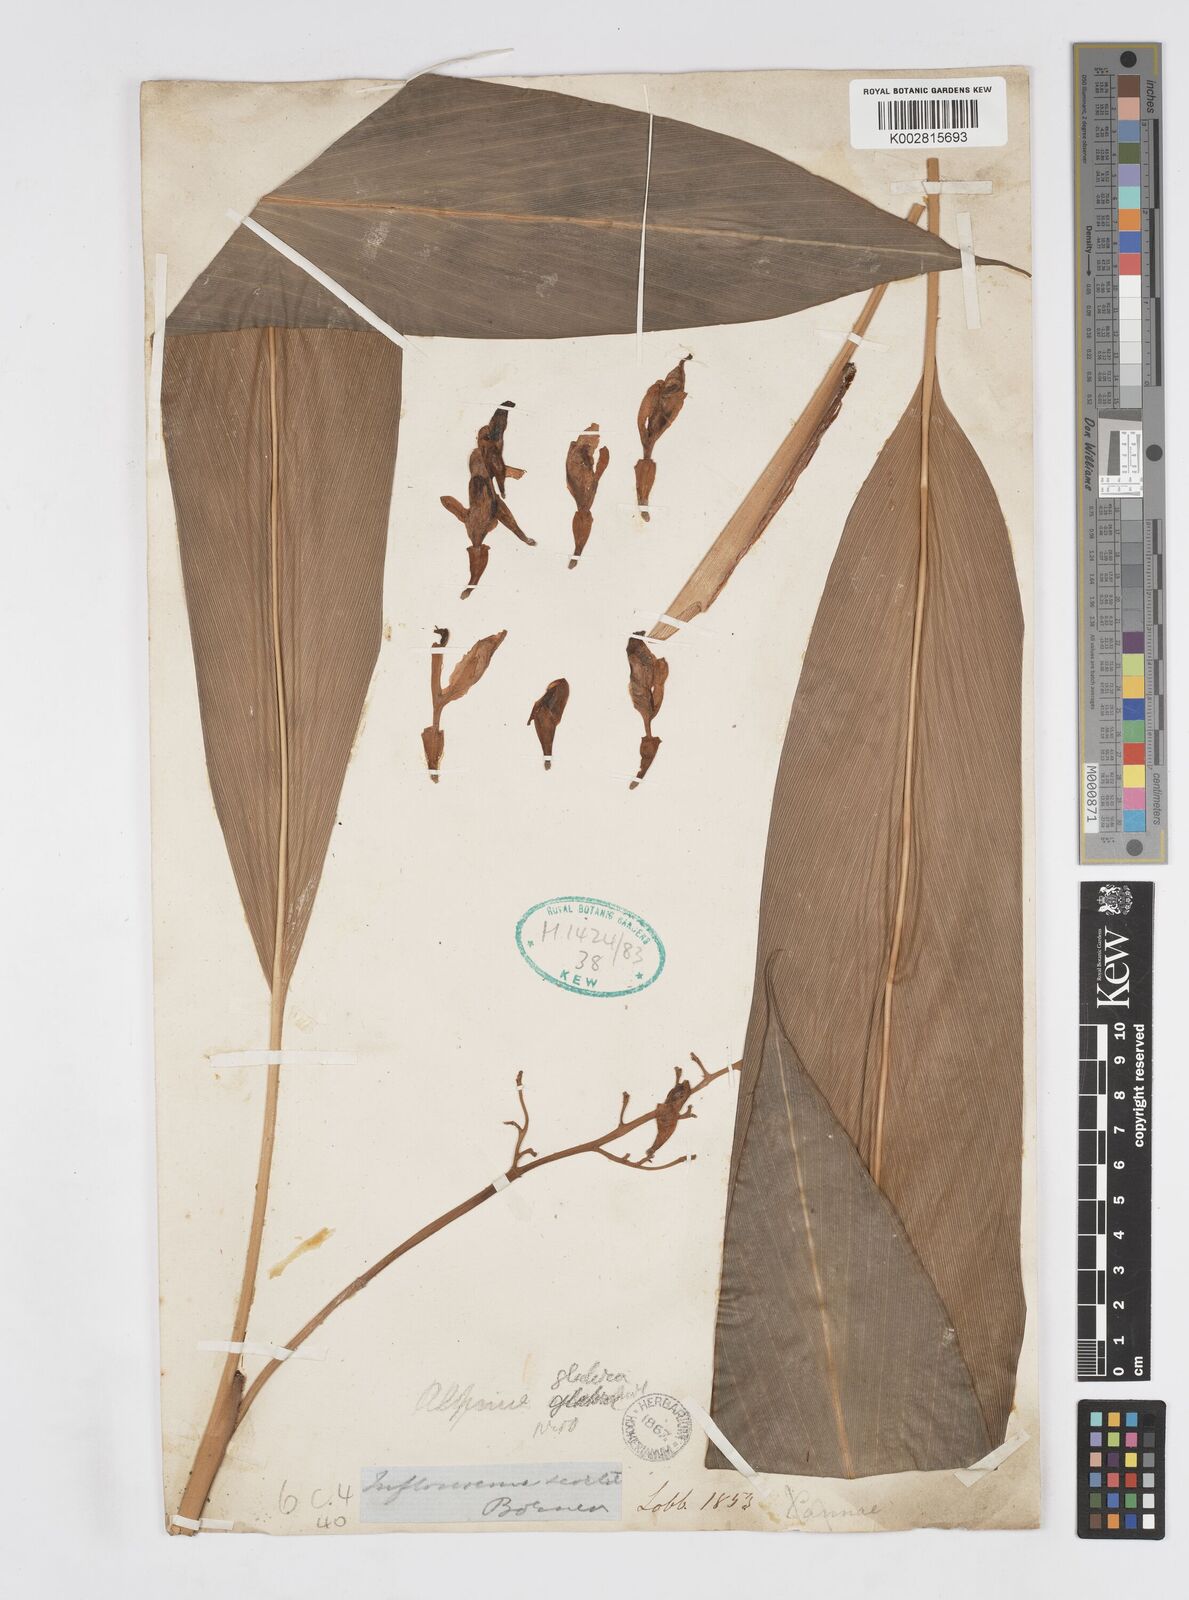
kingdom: Plantae
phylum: Tracheophyta
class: Liliopsida
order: Zingiberales
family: Zingiberaceae
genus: Alpinia
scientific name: Alpinia glabra
